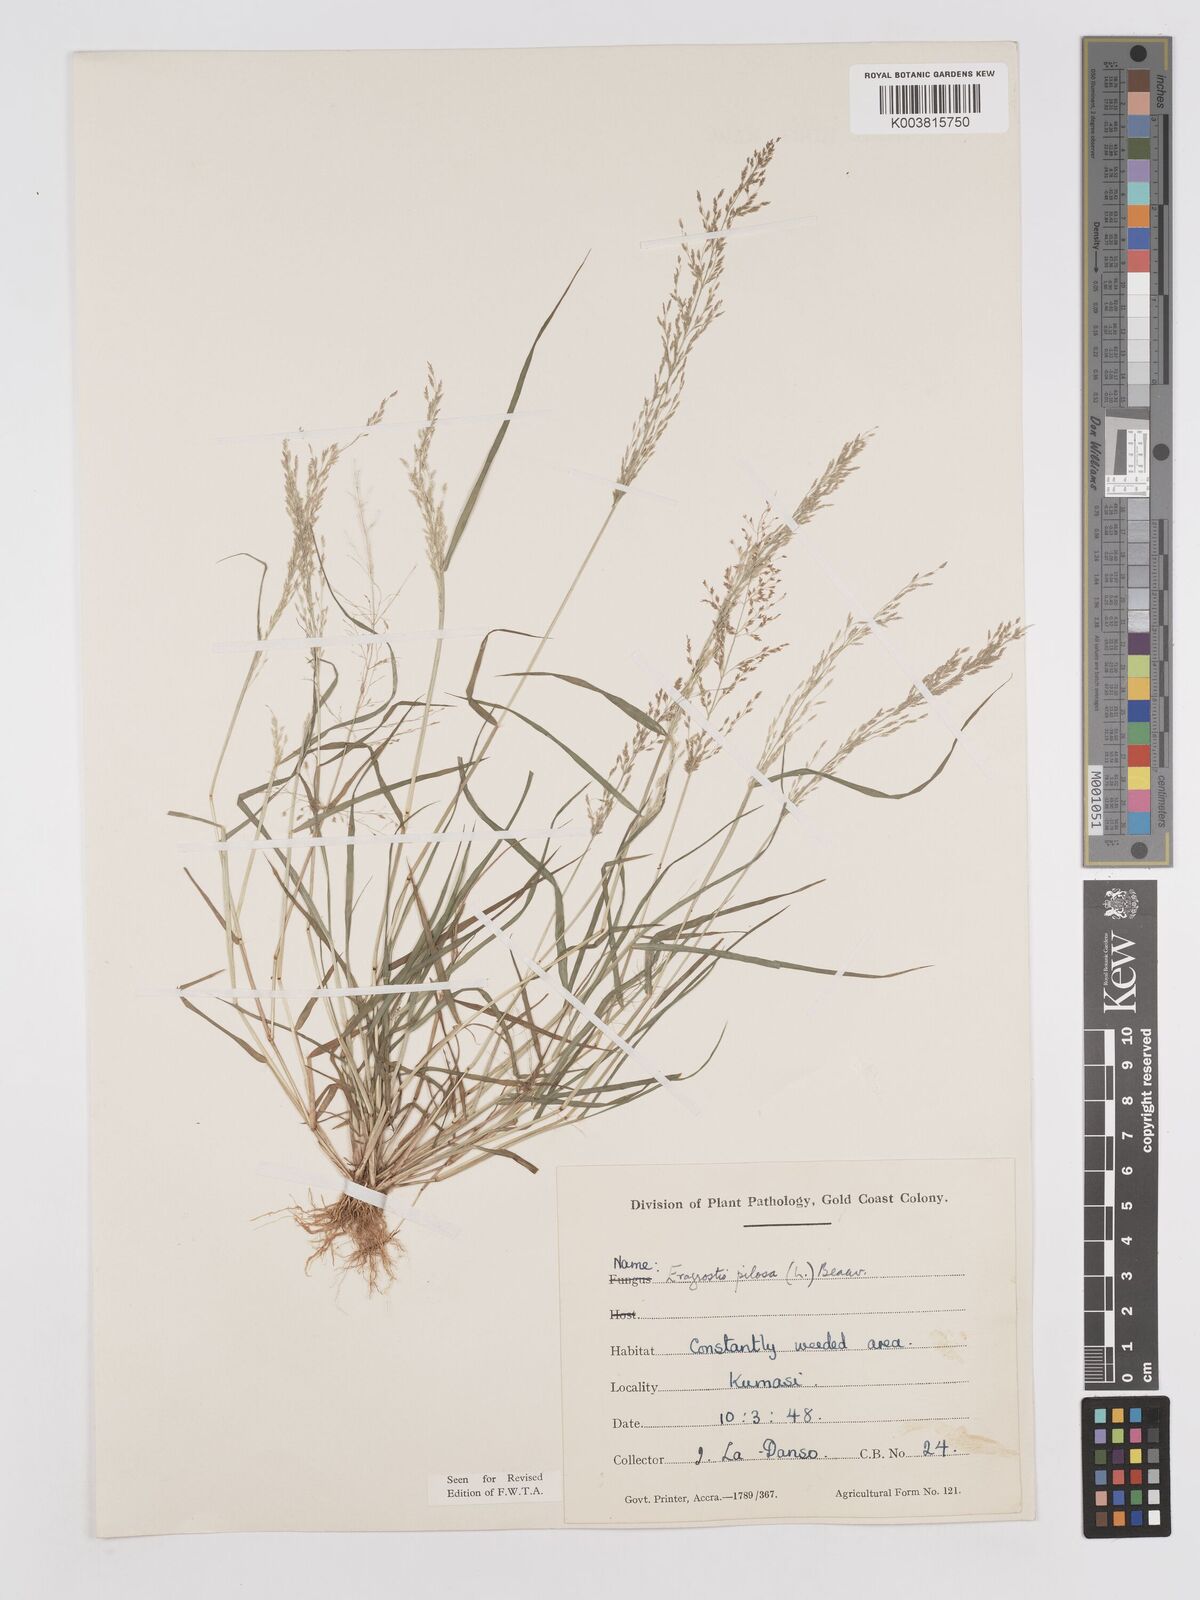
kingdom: Plantae
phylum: Tracheophyta
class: Liliopsida
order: Poales
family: Poaceae
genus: Eragrostis
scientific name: Eragrostis pilosa
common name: Indian lovegrass
